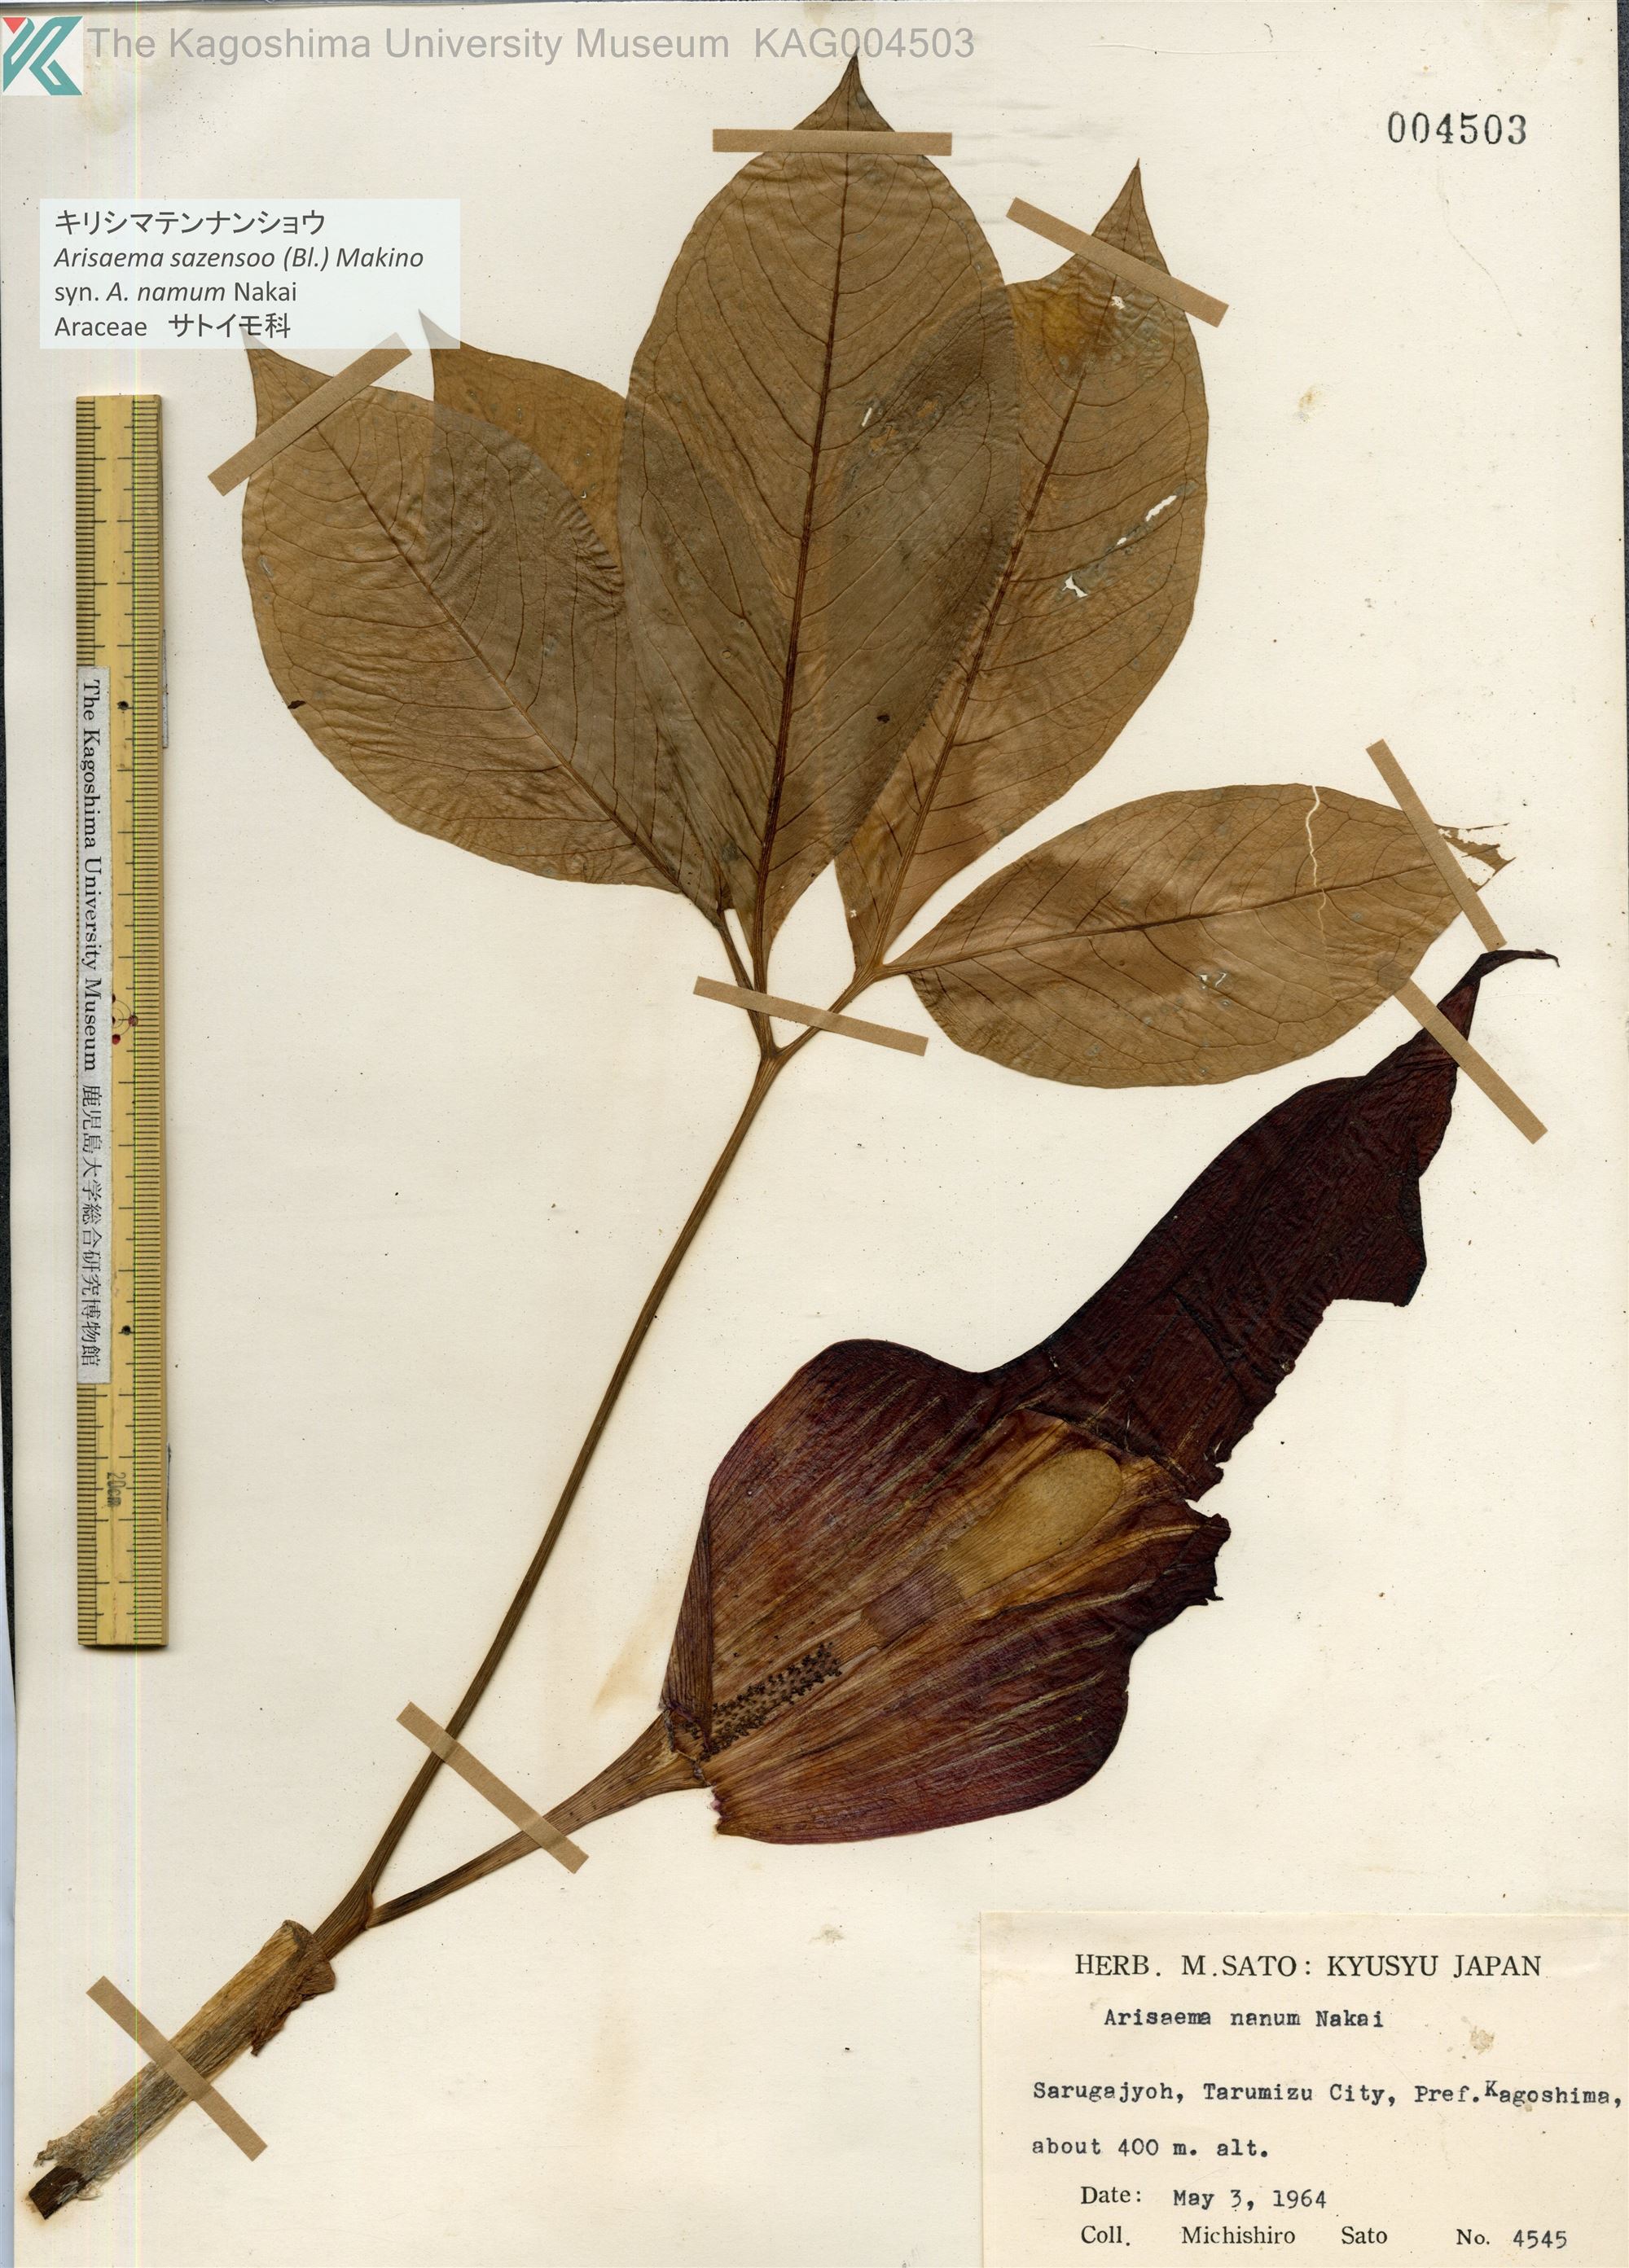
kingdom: Plantae
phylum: Tracheophyta
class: Liliopsida
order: Alismatales
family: Araceae
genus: Arisaema
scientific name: Arisaema sazensoo
